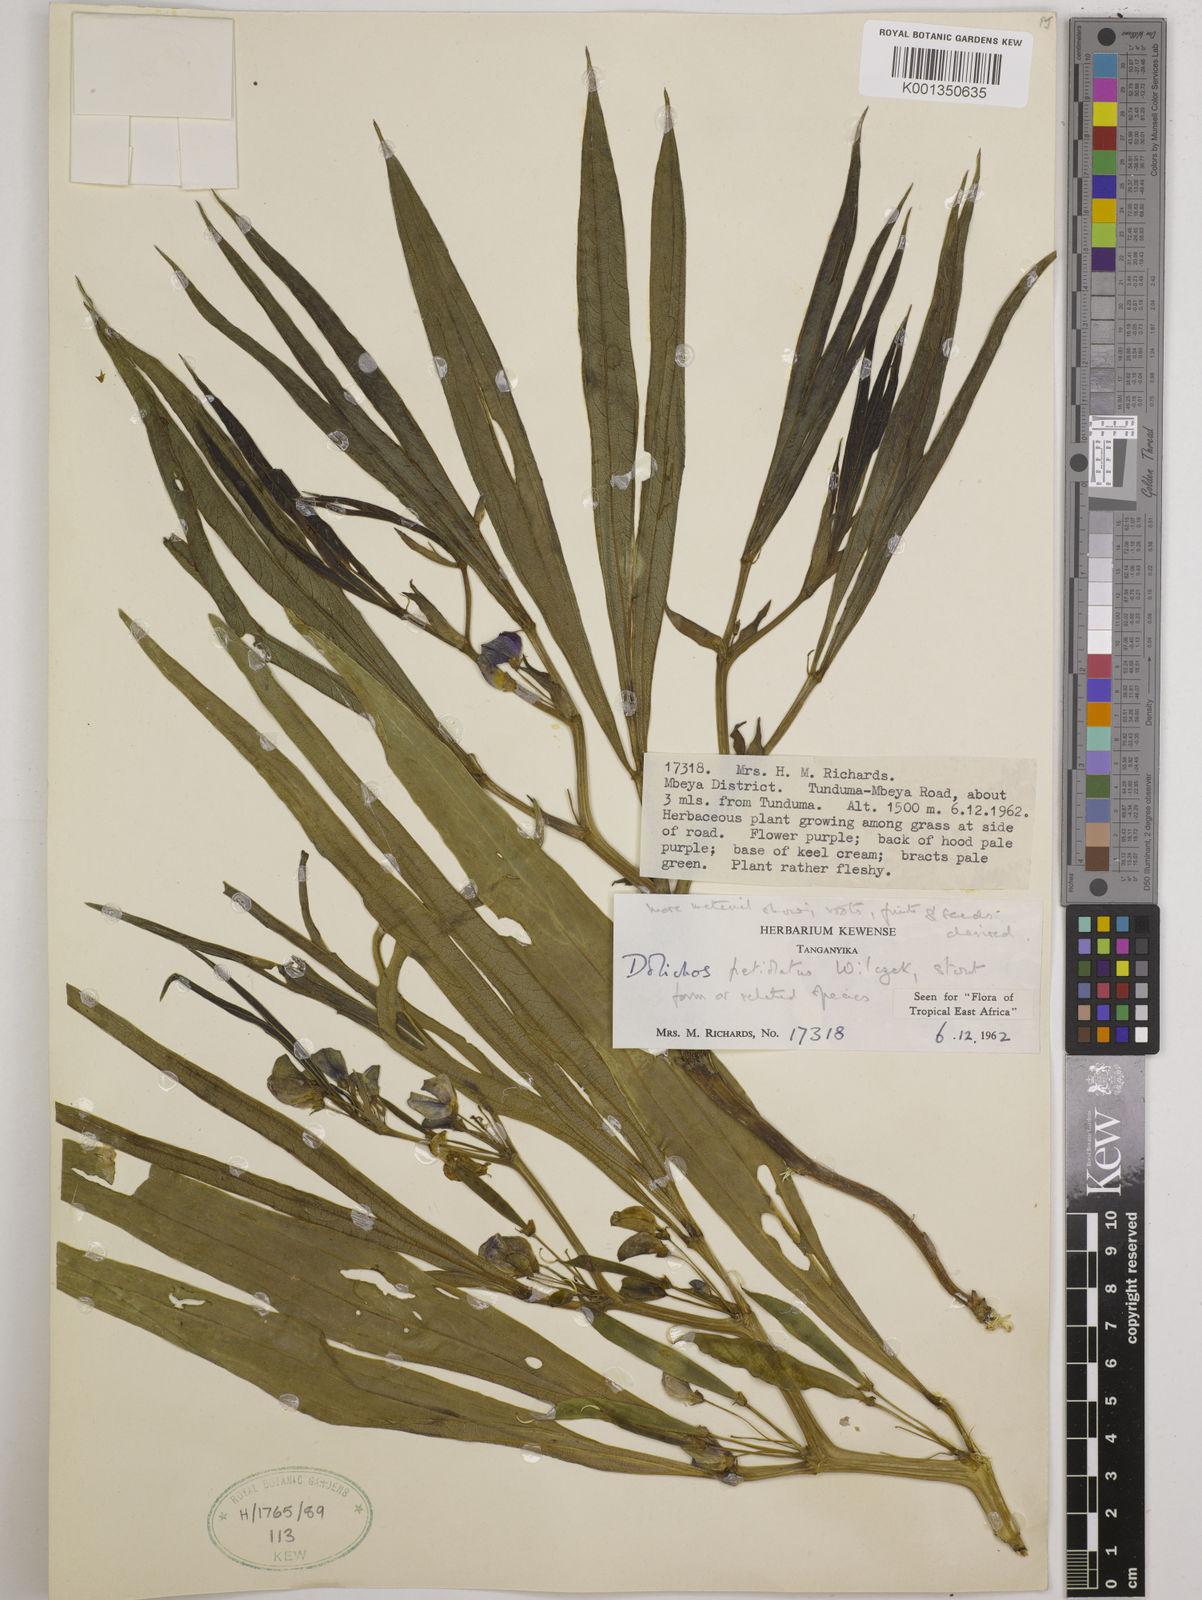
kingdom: Plantae
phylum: Tracheophyta
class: Magnoliopsida
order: Fabales
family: Fabaceae
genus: Dolichos
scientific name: Dolichos petiolatus
